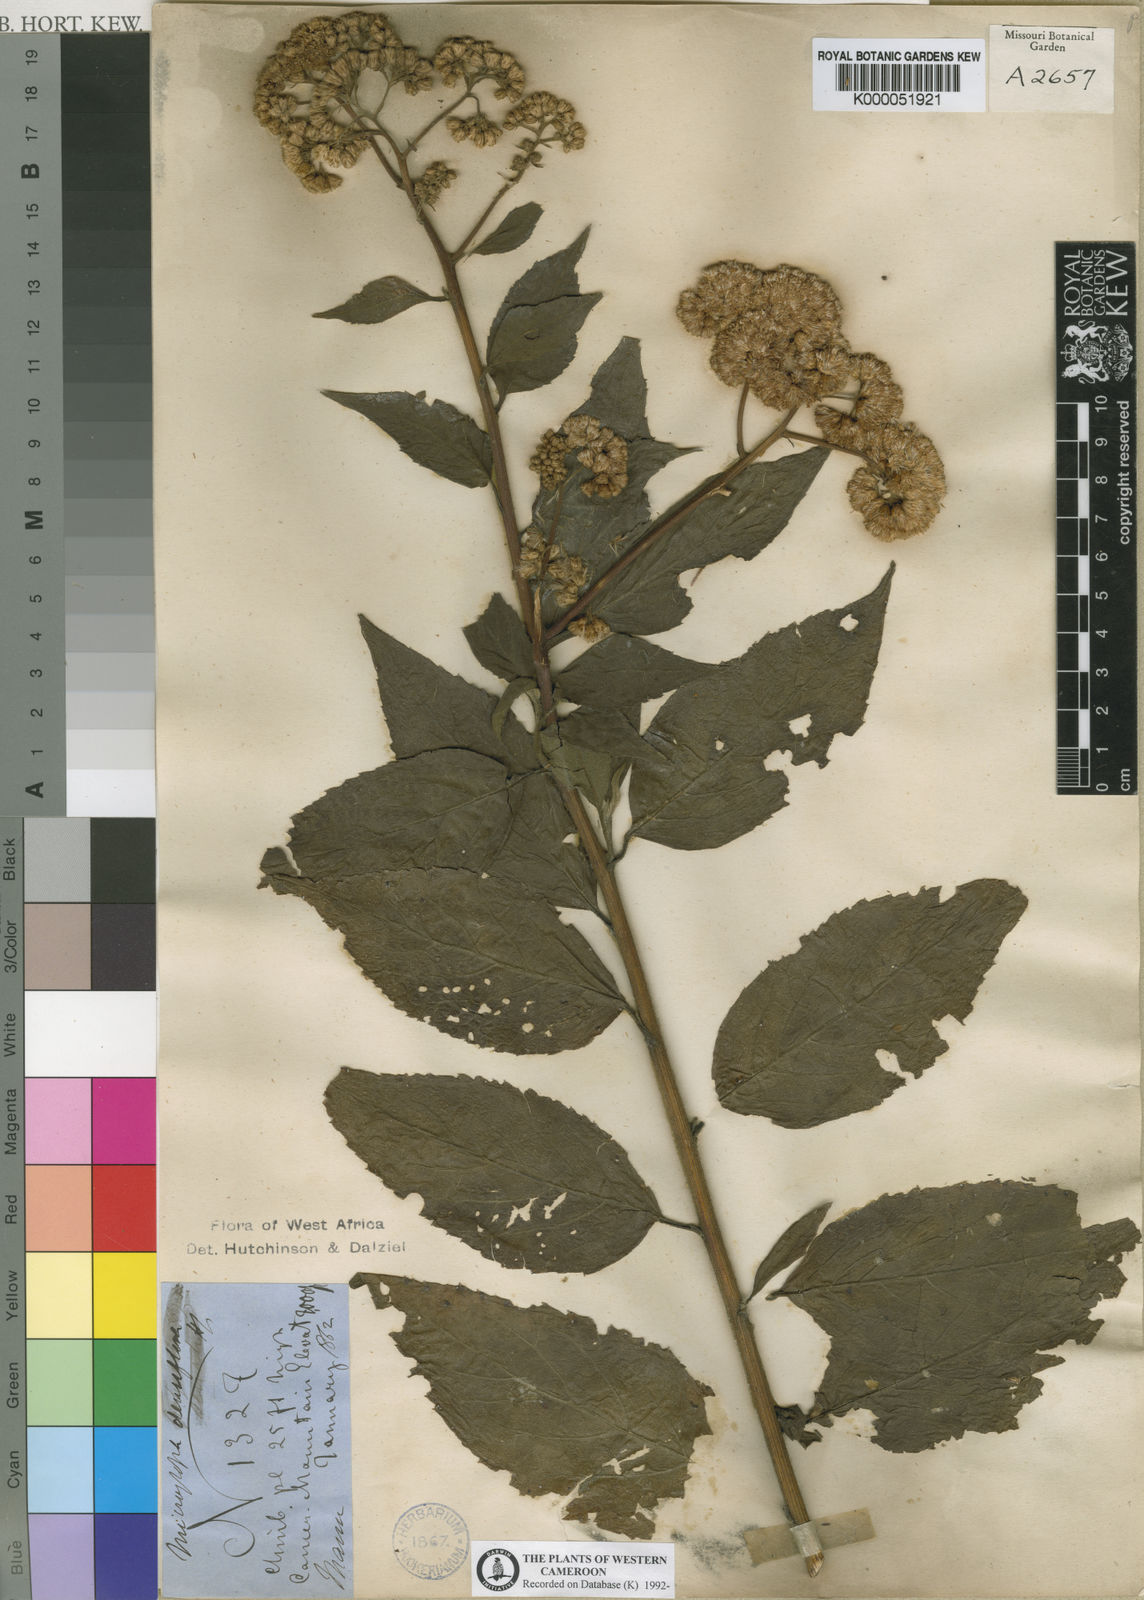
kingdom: Plantae
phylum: Tracheophyta
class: Magnoliopsida
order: Asterales
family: Asteraceae
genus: Microglossa
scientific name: Microglossa densiflora
